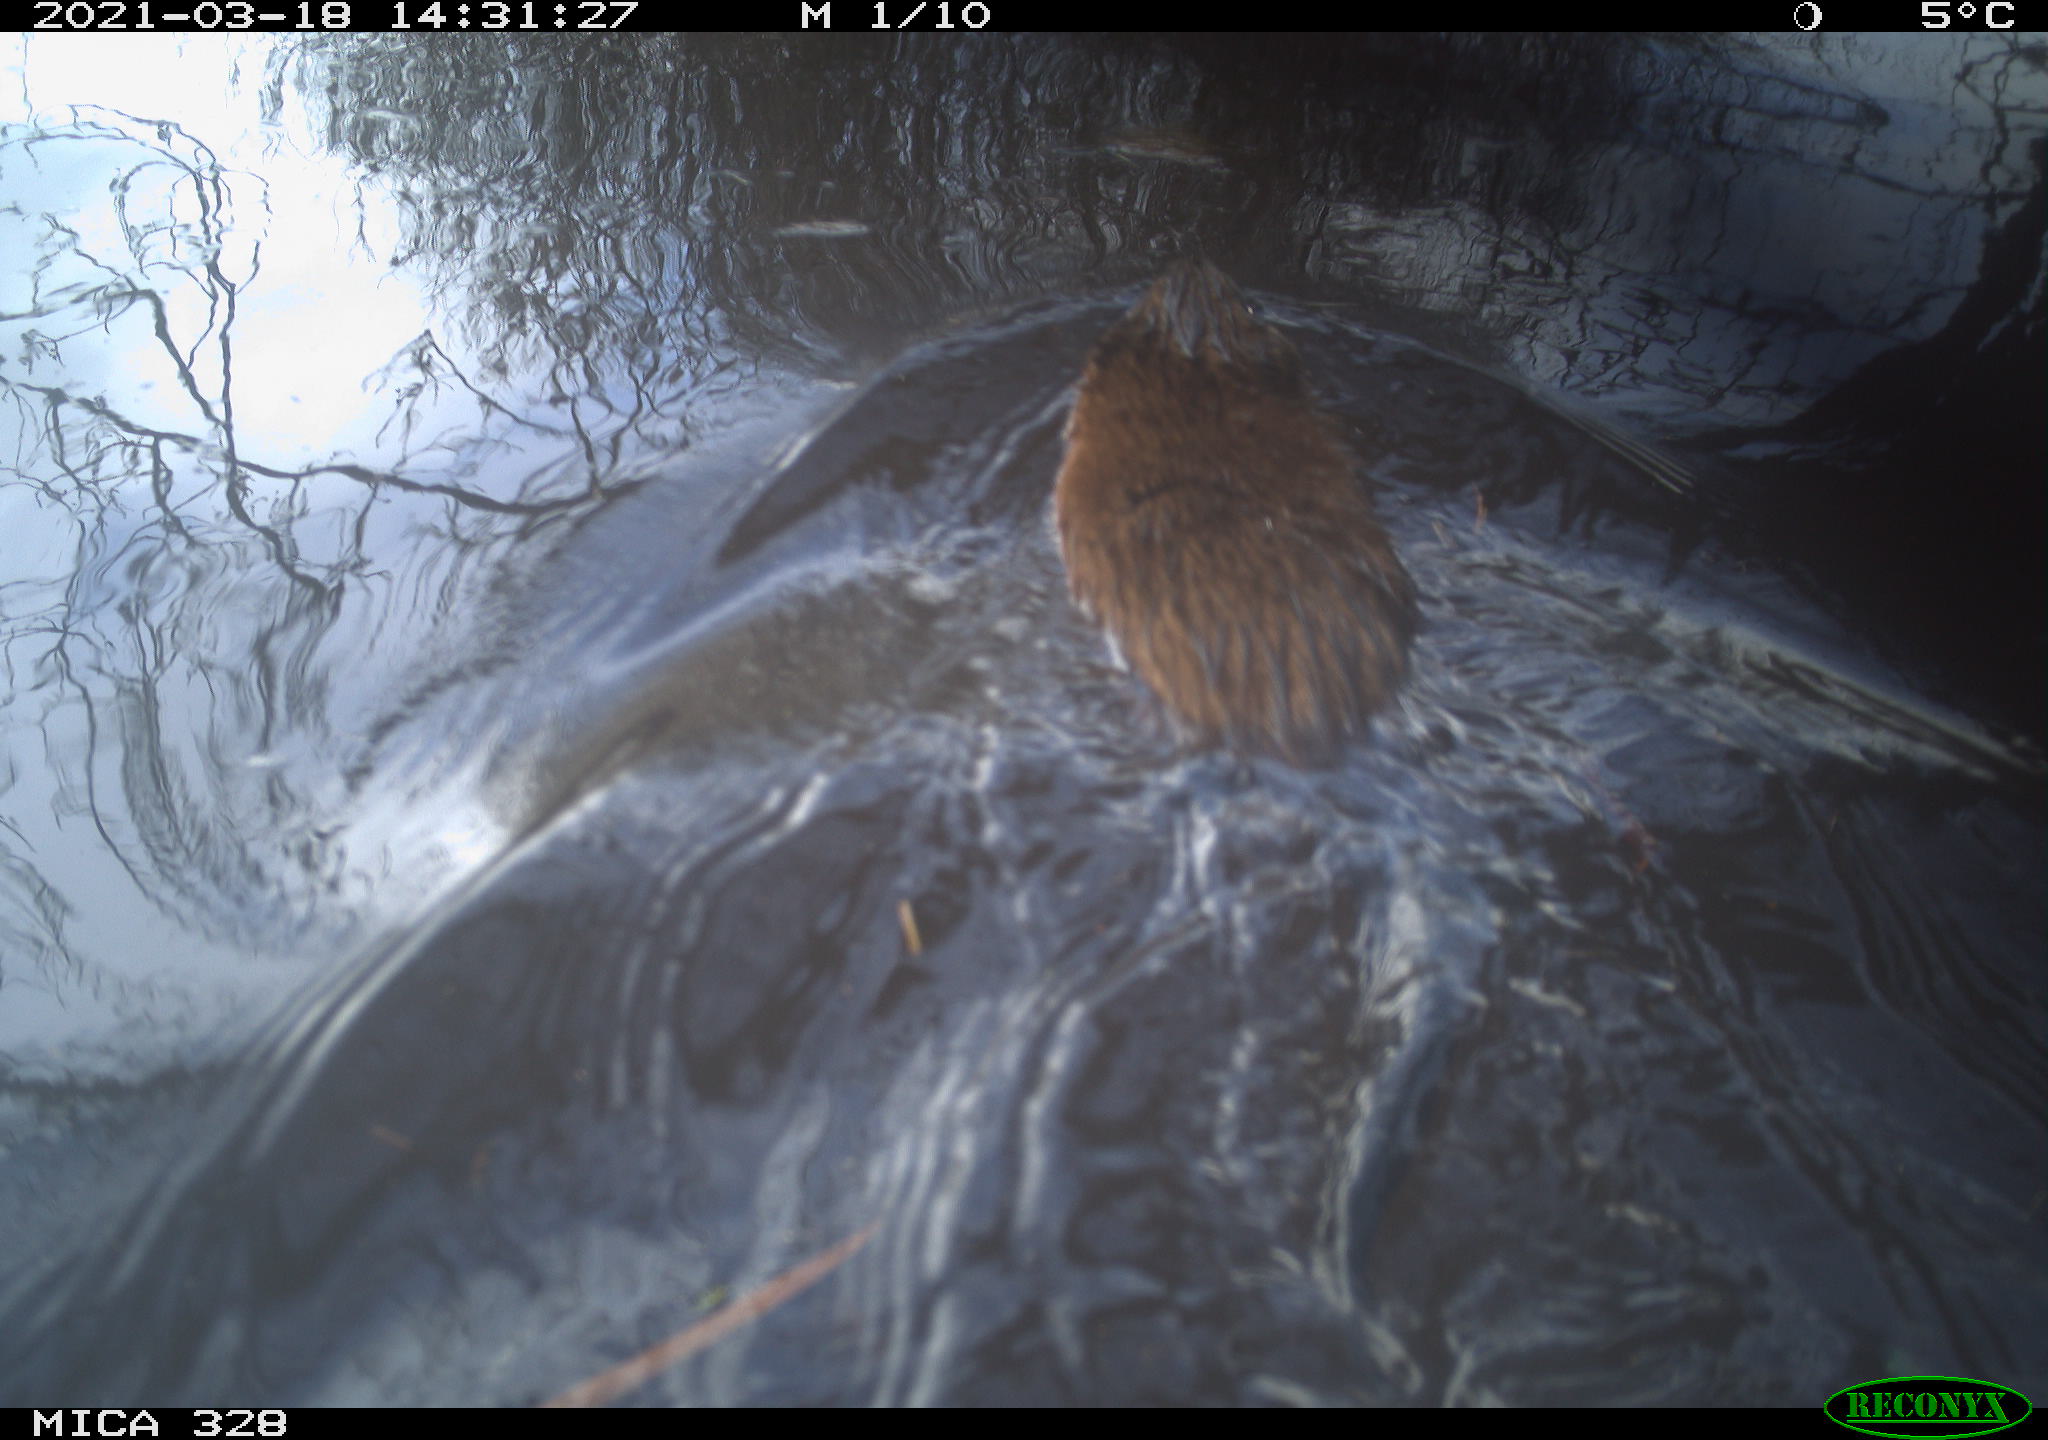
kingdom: Animalia
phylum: Chordata
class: Mammalia
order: Rodentia
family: Cricetidae
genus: Ondatra
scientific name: Ondatra zibethicus
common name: Muskrat
